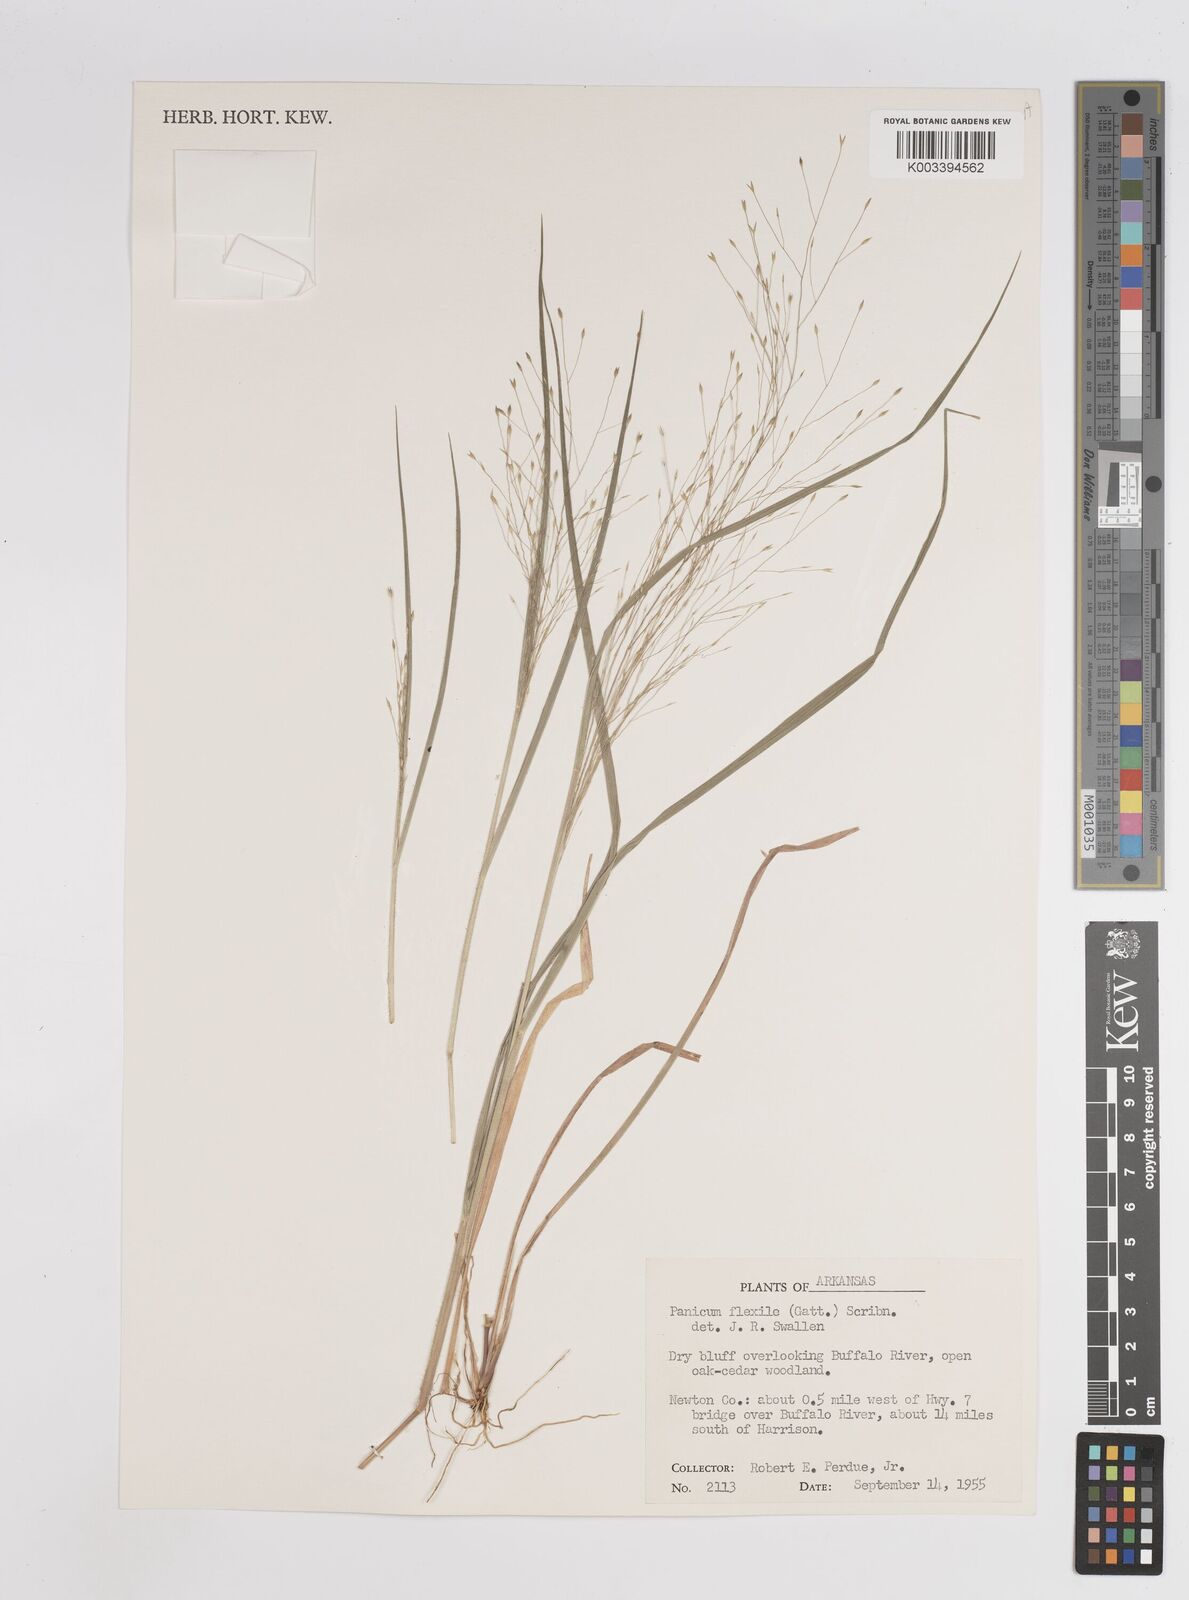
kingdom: Plantae
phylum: Tracheophyta
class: Liliopsida
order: Poales
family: Poaceae
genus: Panicum
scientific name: Panicum flexile
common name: Wiry panicgrass
